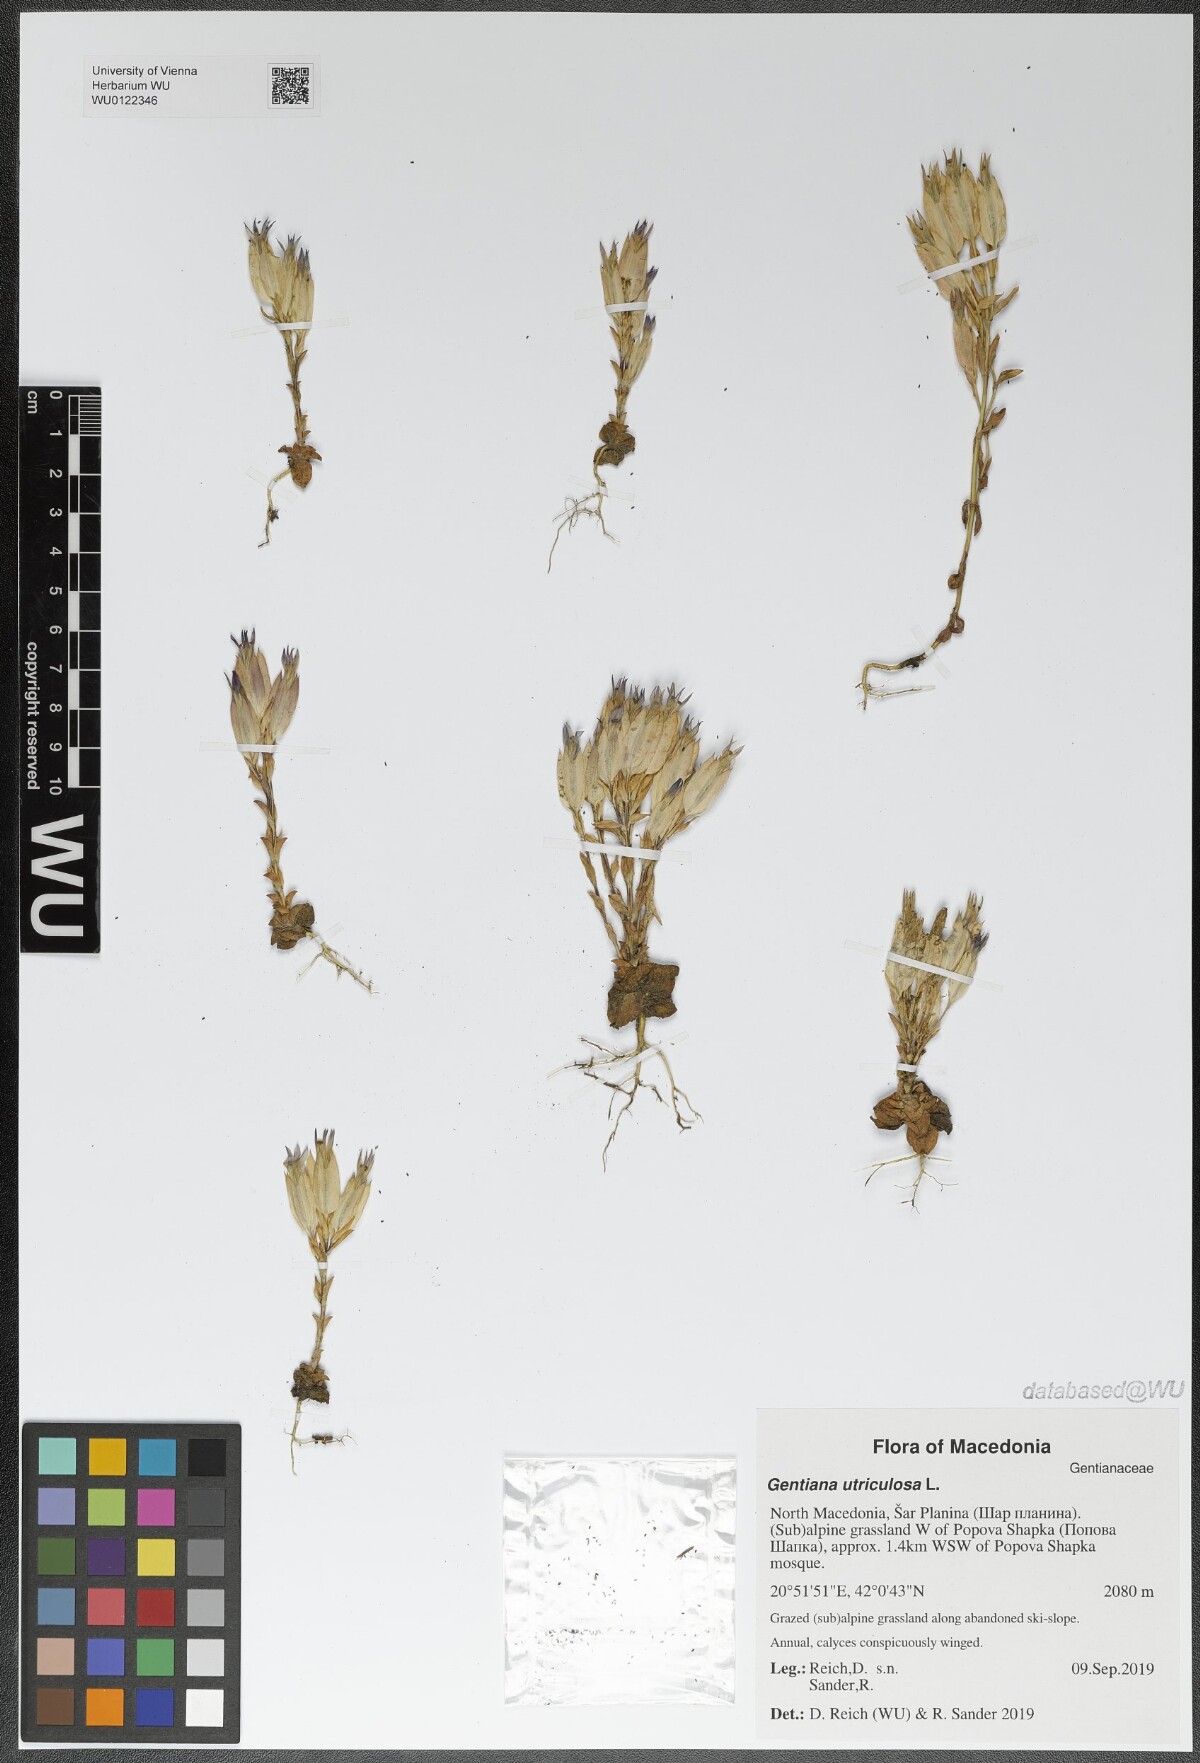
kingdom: Plantae
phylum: Tracheophyta
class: Magnoliopsida
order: Gentianales
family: Gentianaceae
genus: Gentiana
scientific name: Gentiana utriculosa
